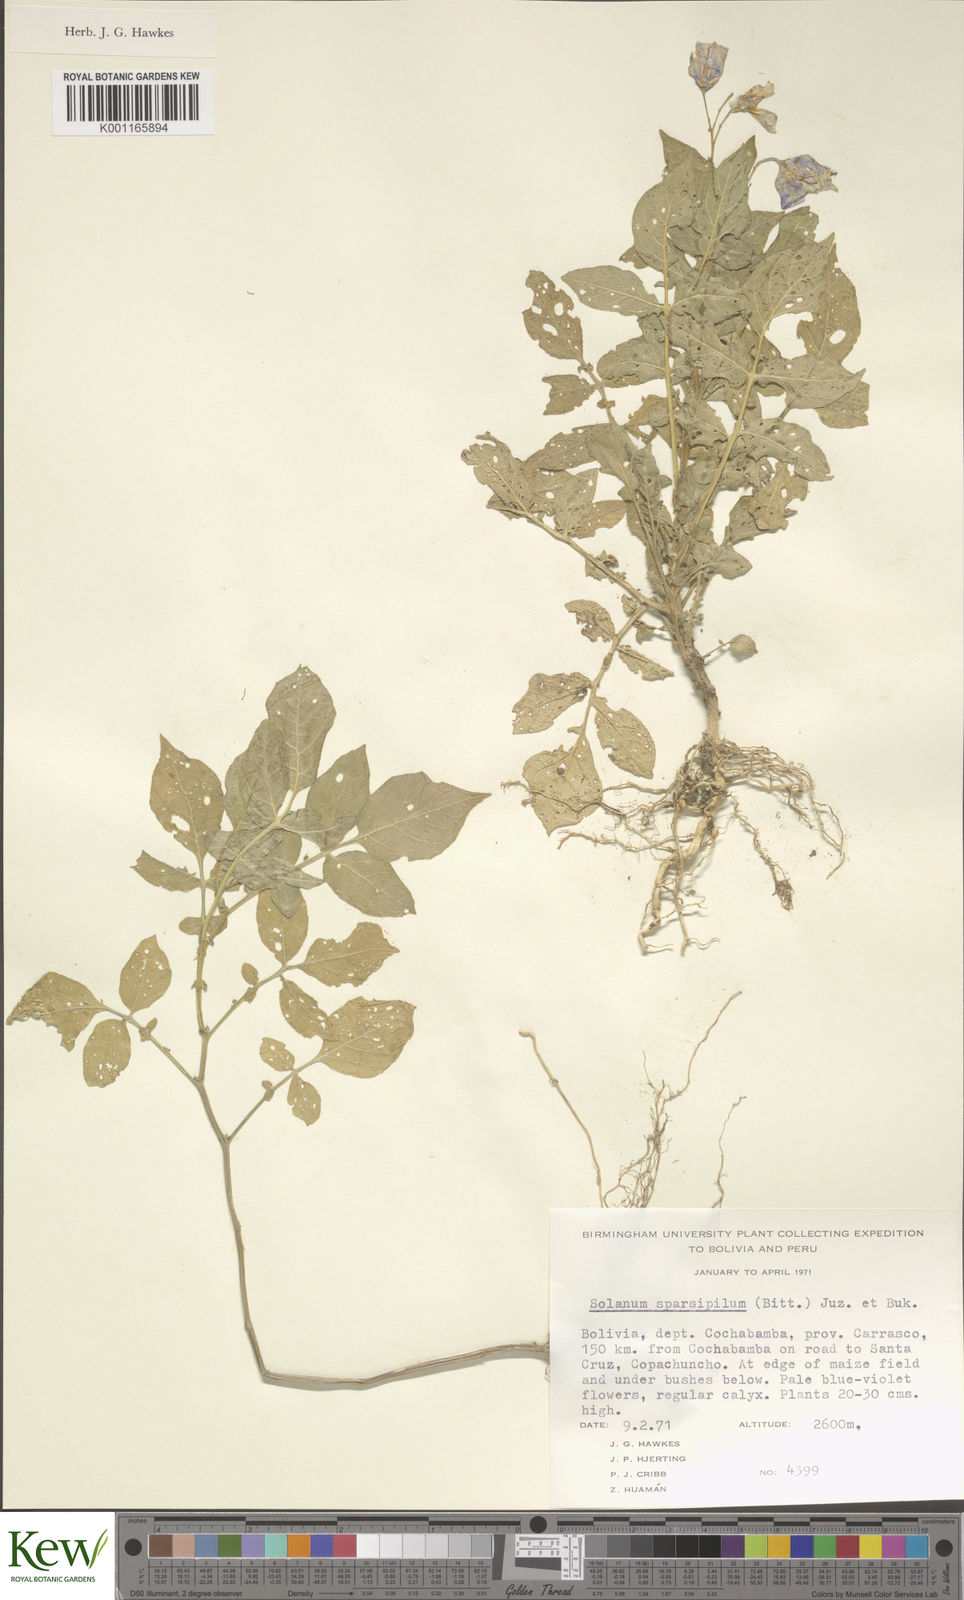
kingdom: Plantae
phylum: Tracheophyta
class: Magnoliopsida
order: Solanales
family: Solanaceae
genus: Solanum
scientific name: Solanum brevicaule
